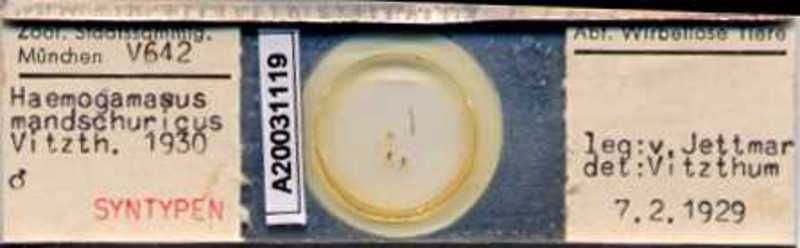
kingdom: Animalia
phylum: Arthropoda
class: Arachnida
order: Mesostigmata
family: Parasitidae
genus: Haemogamasus
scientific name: Haemogamasus mandshuricus
